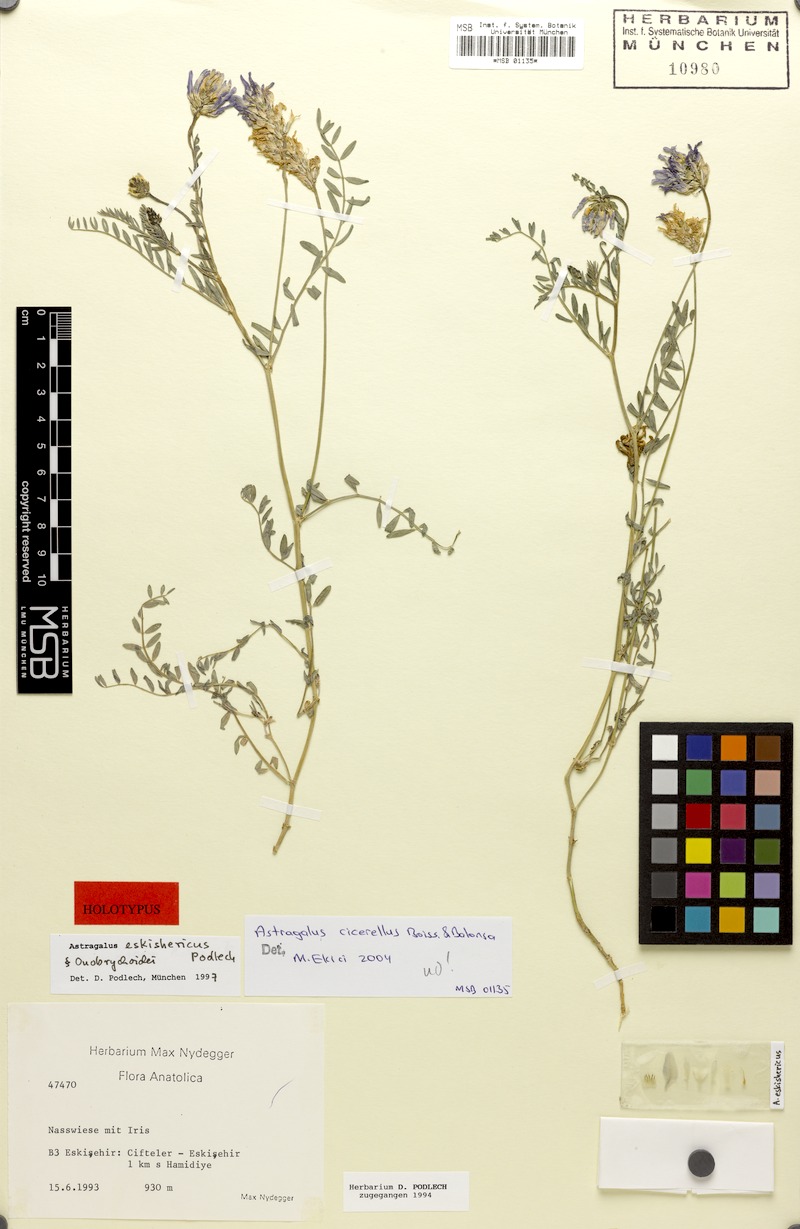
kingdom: Plantae
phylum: Tracheophyta
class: Magnoliopsida
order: Fabales
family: Fabaceae
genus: Astragalus
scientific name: Astragalus cicerellus
